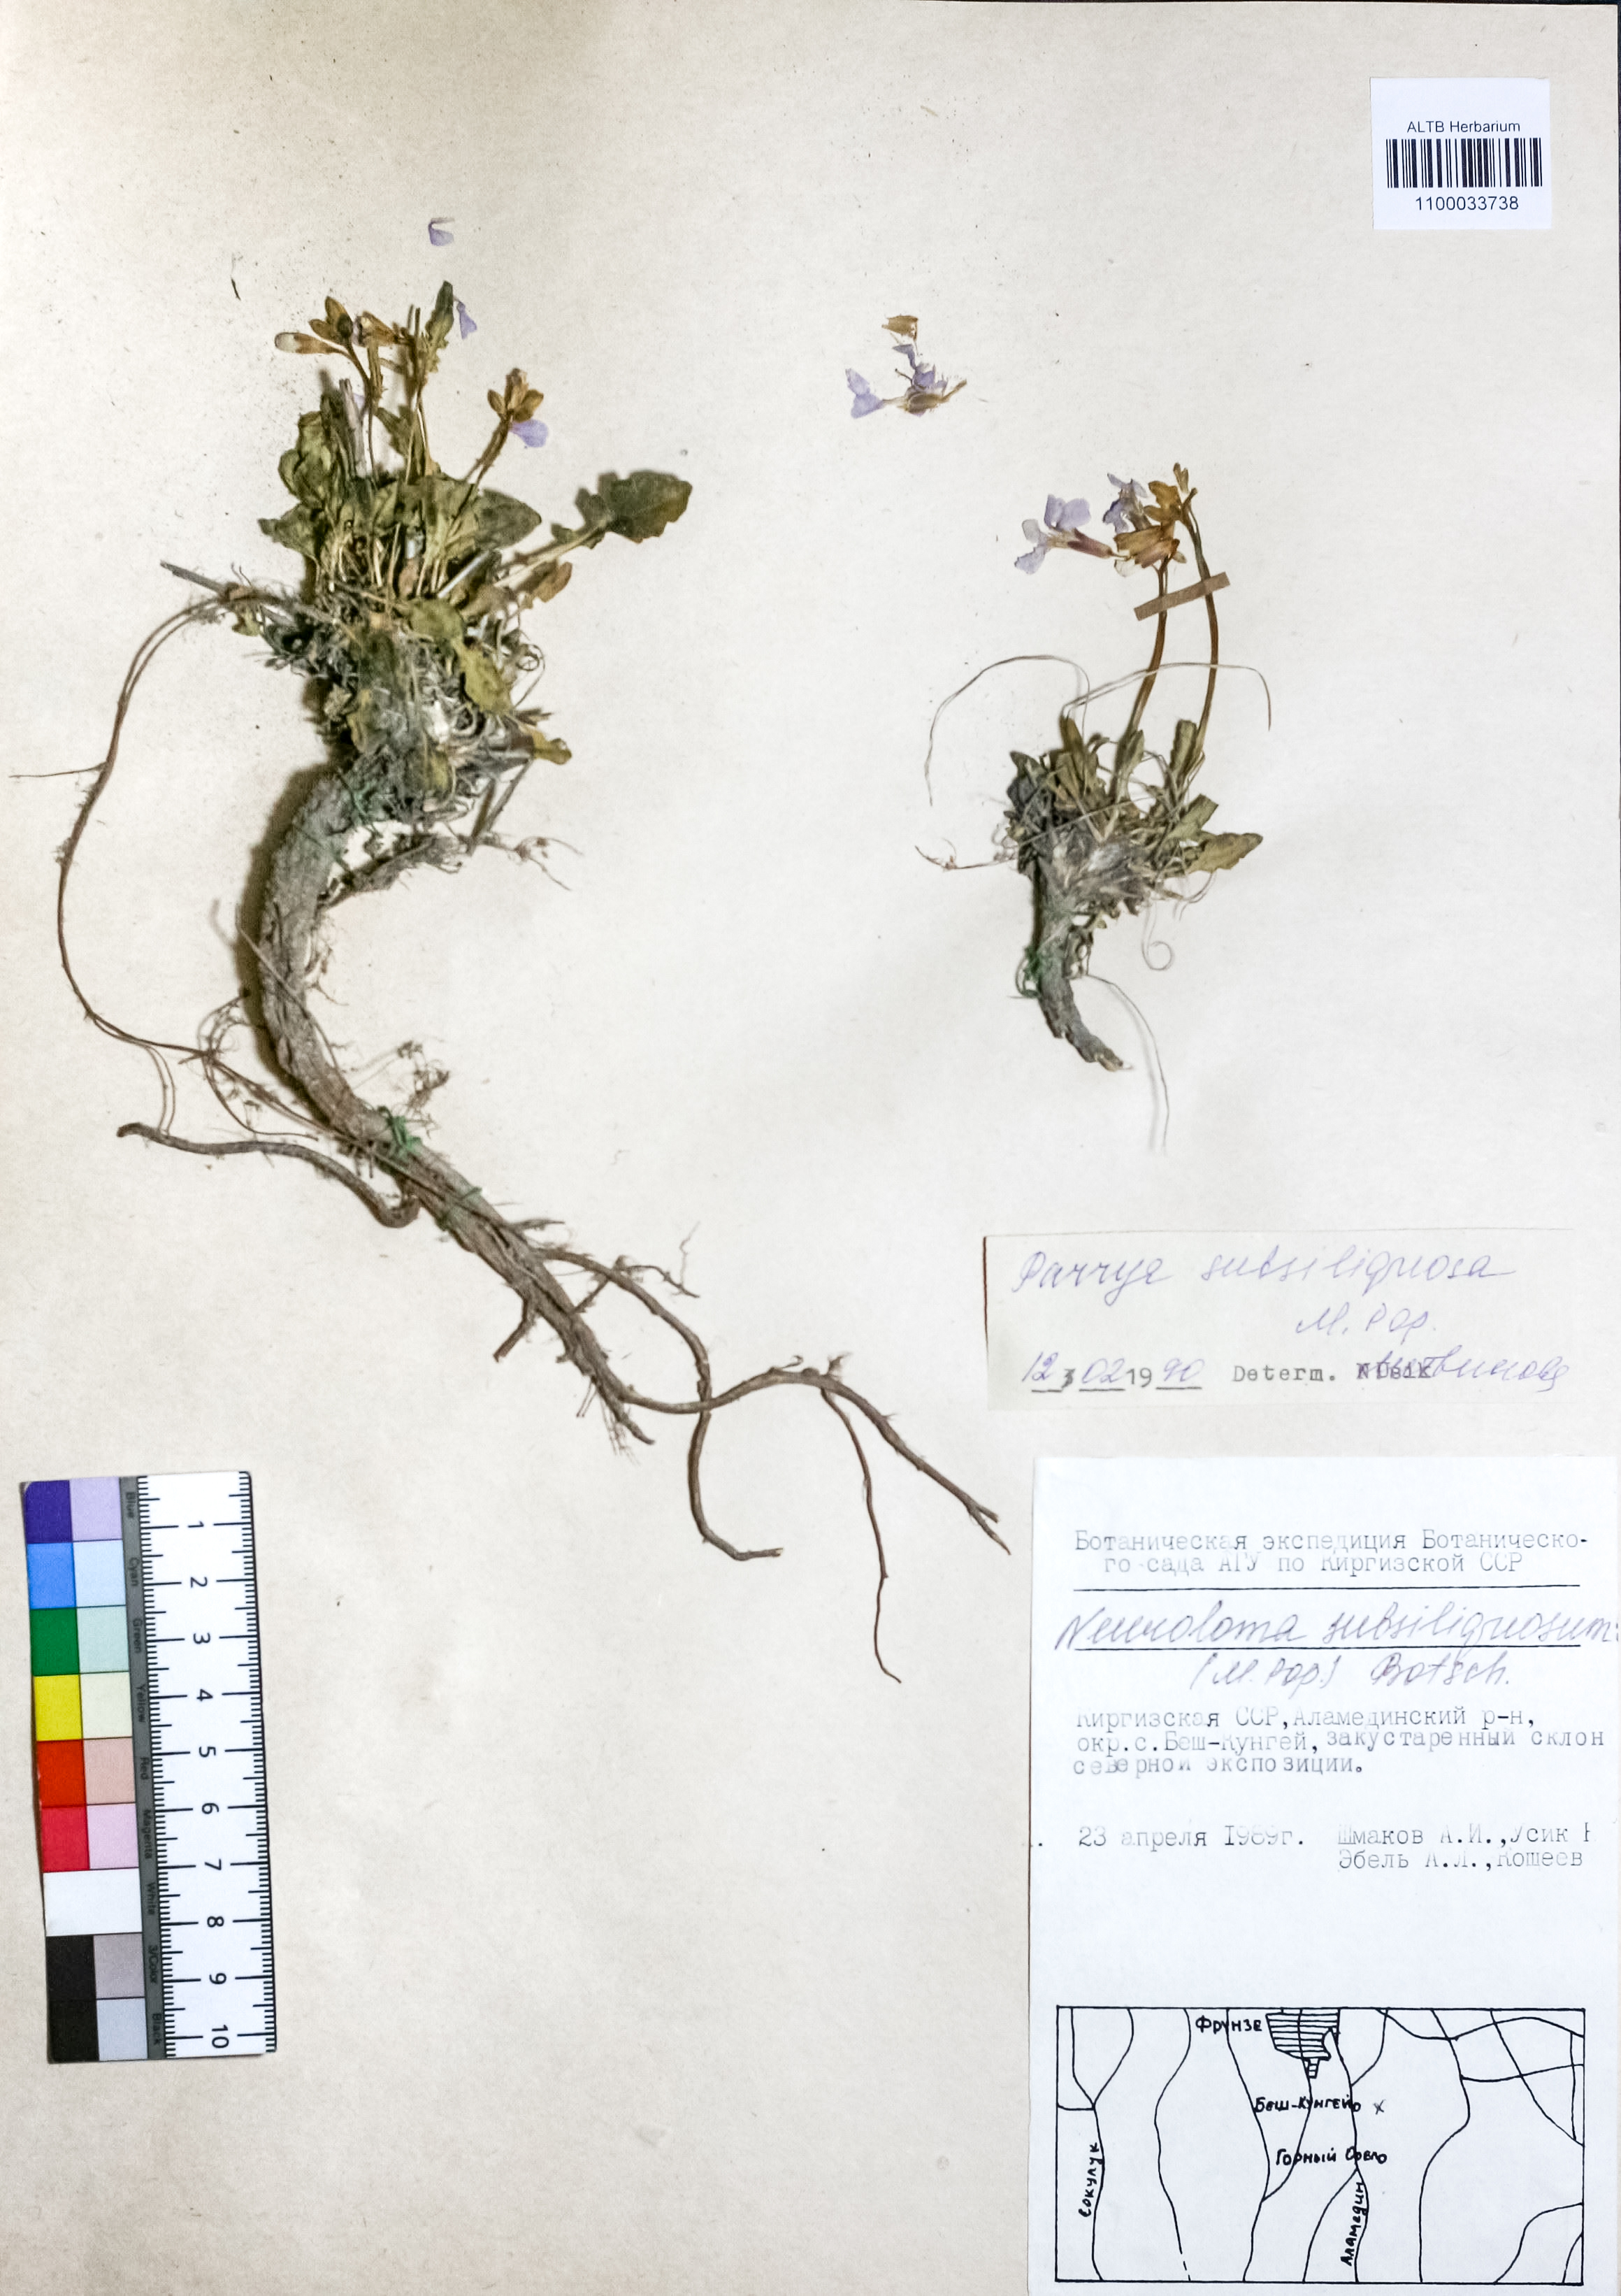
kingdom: Plantae
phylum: Tracheophyta
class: Magnoliopsida
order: Brassicales
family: Brassicaceae
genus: Parrya
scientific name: Parrya subsiliquosa
